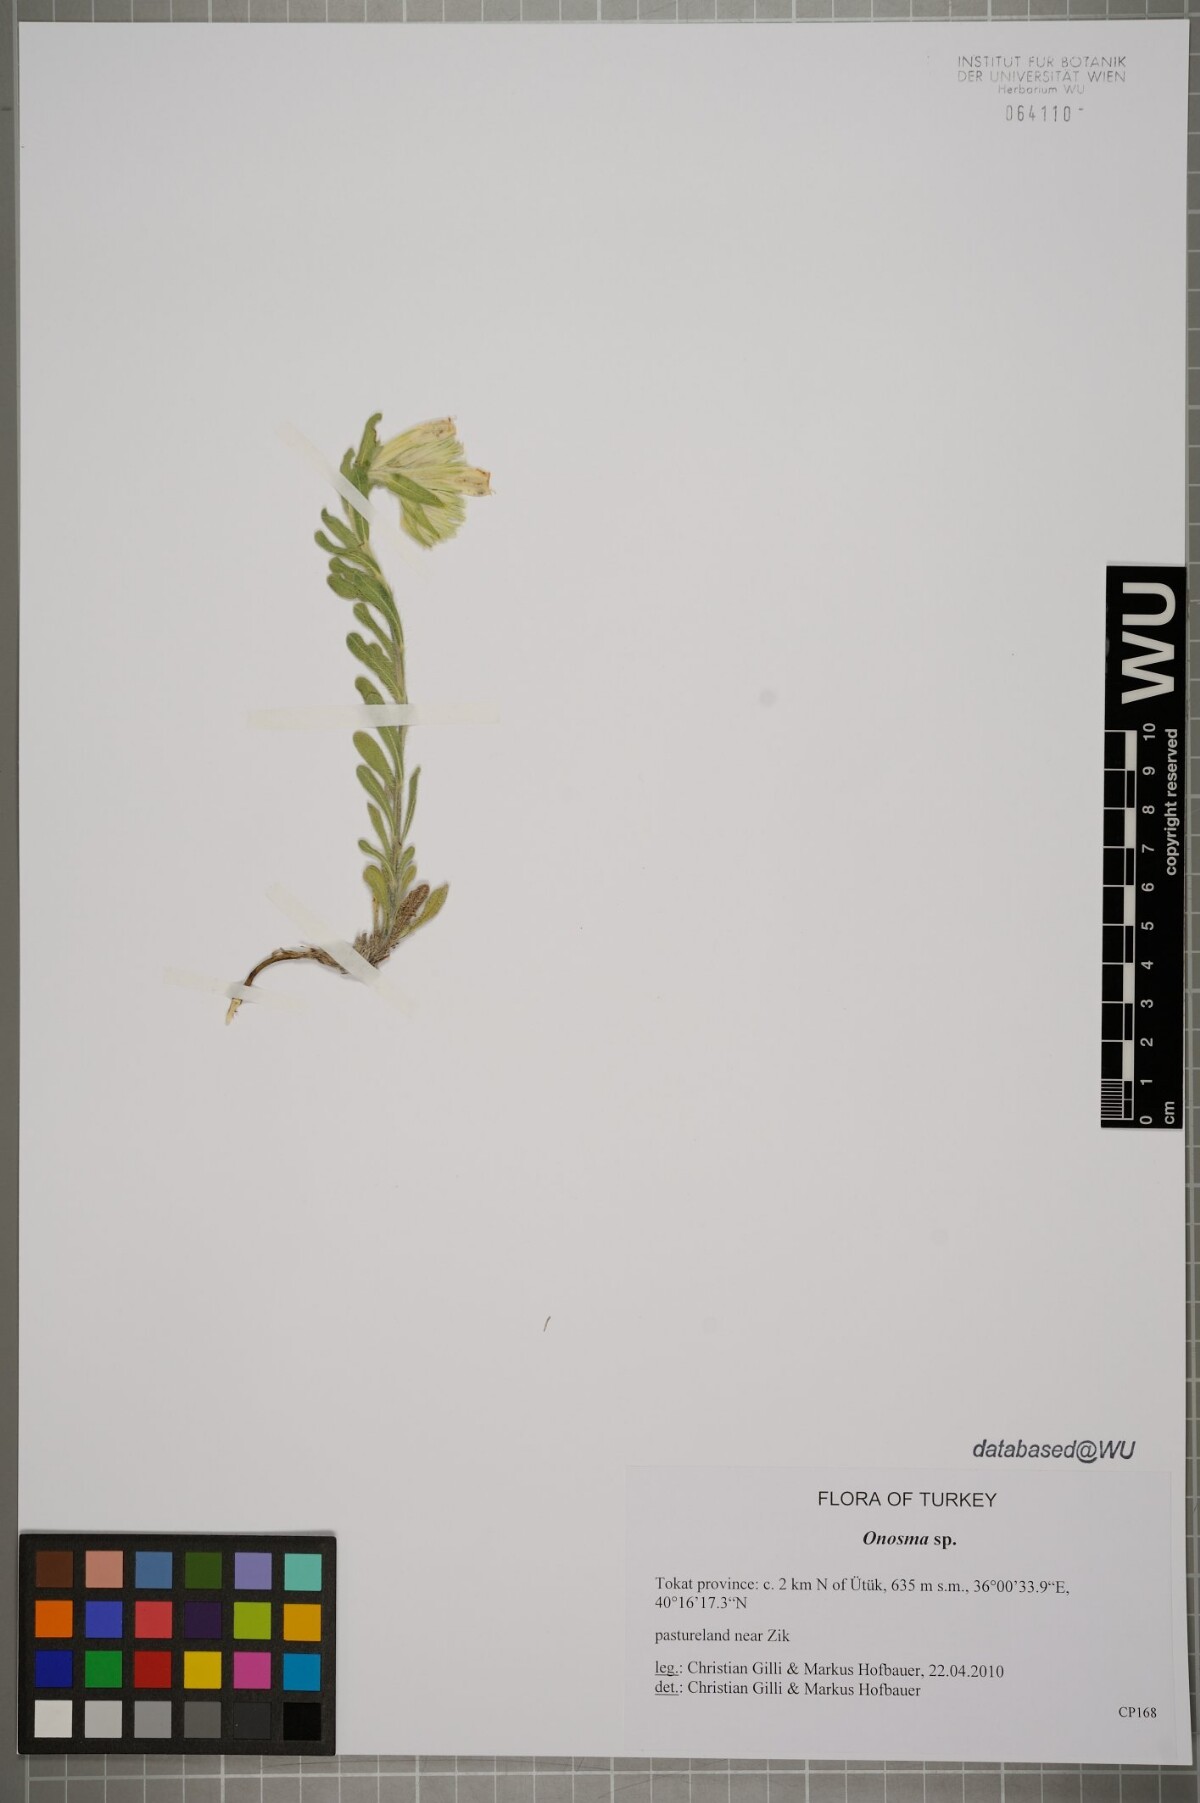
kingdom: Plantae
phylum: Tracheophyta
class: Magnoliopsida
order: Boraginales
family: Boraginaceae
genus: Onosma
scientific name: Onosma
